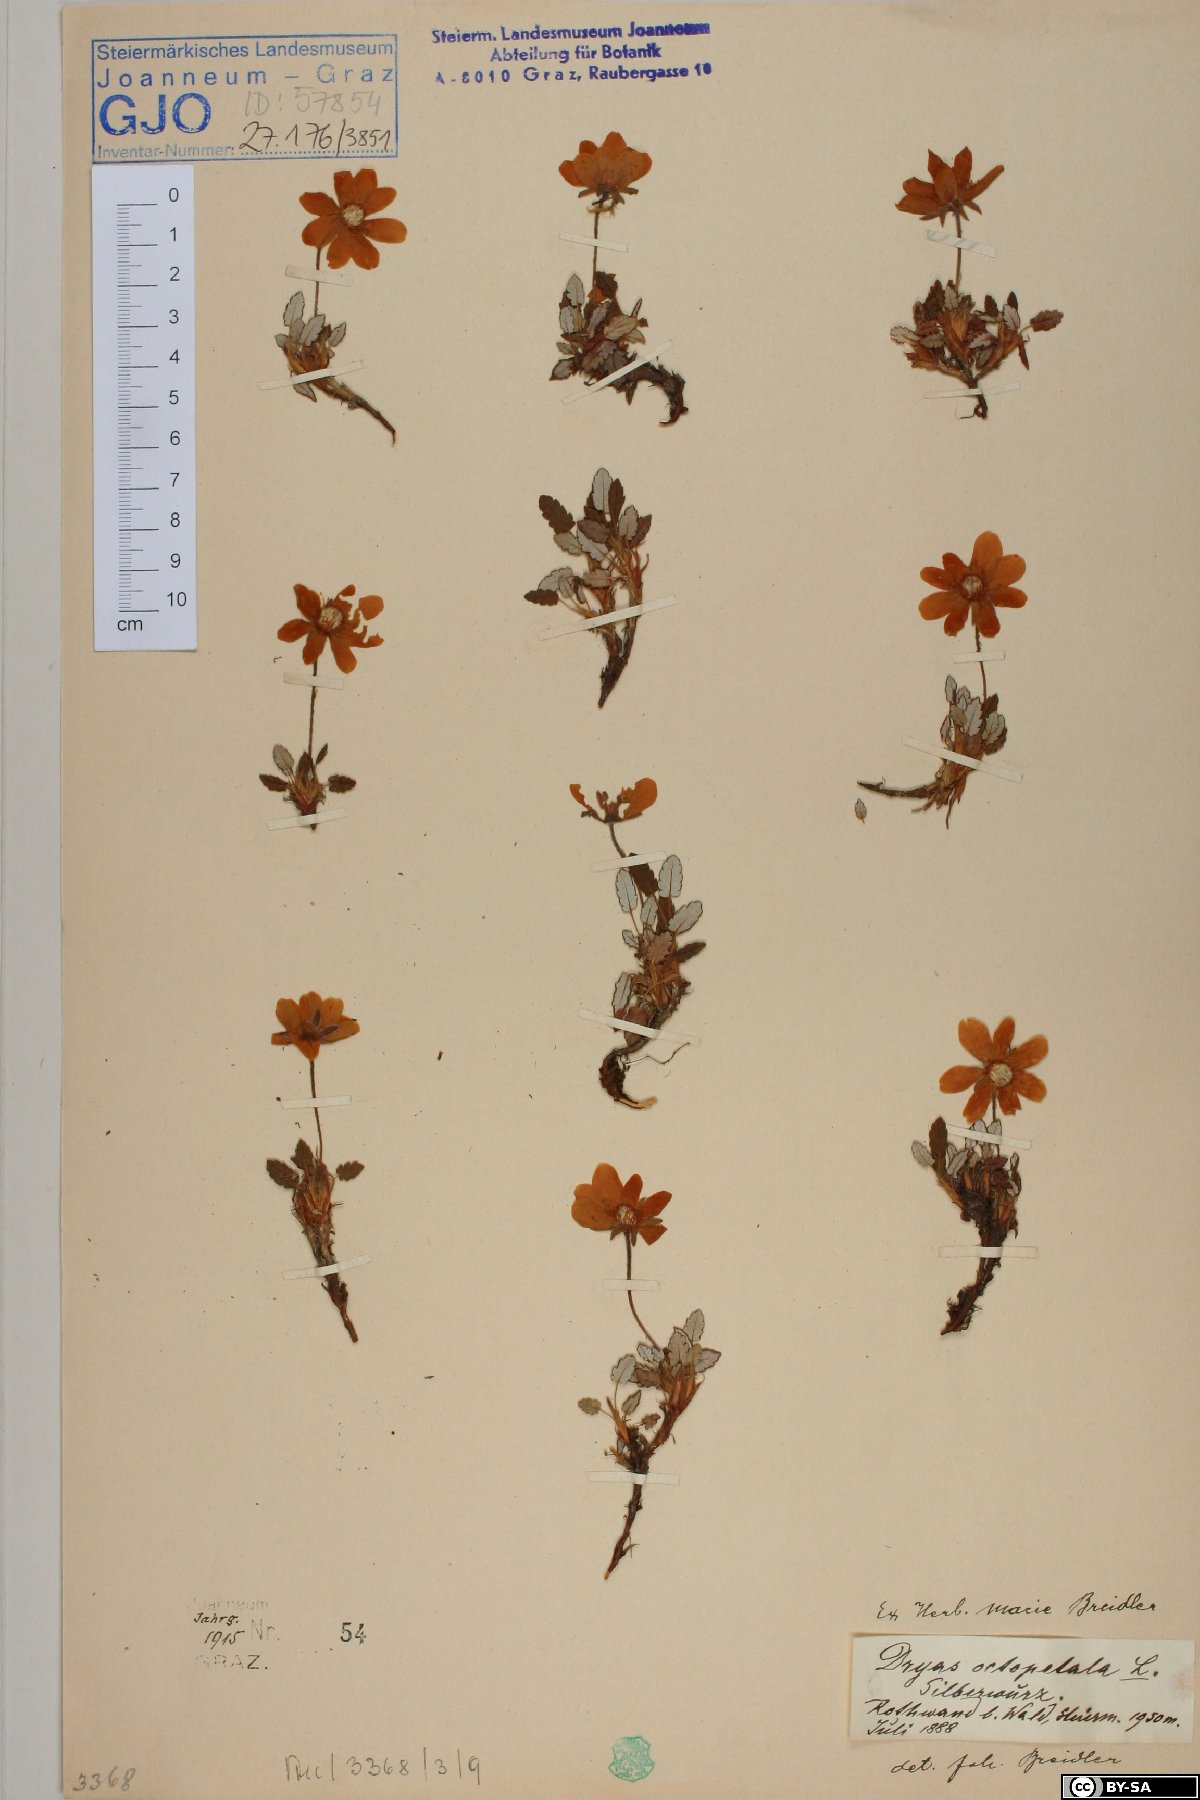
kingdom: Plantae
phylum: Tracheophyta
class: Magnoliopsida
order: Rosales
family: Rosaceae
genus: Dryas
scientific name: Dryas octopetala
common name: Eight-petal mountain-avens
